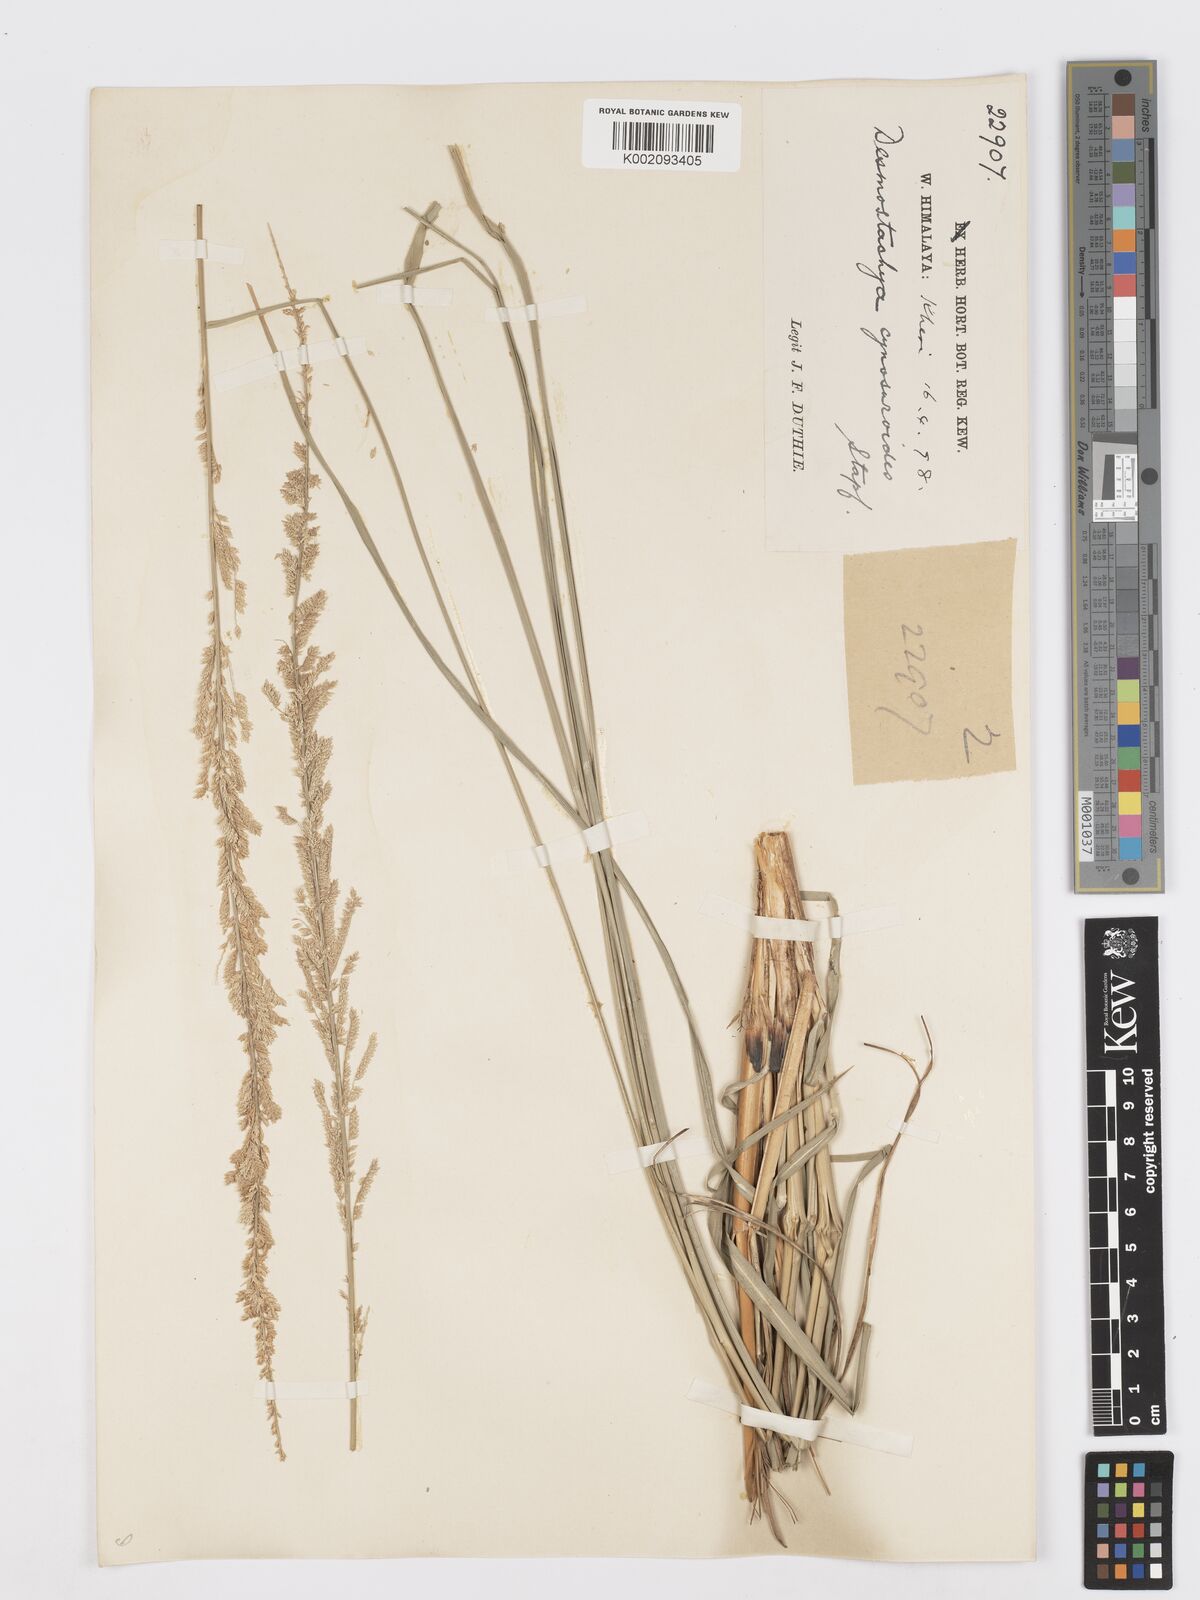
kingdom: Plantae
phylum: Tracheophyta
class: Liliopsida
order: Poales
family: Poaceae
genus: Desmostachya
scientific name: Desmostachya bipinnata
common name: Crowfoot grass
